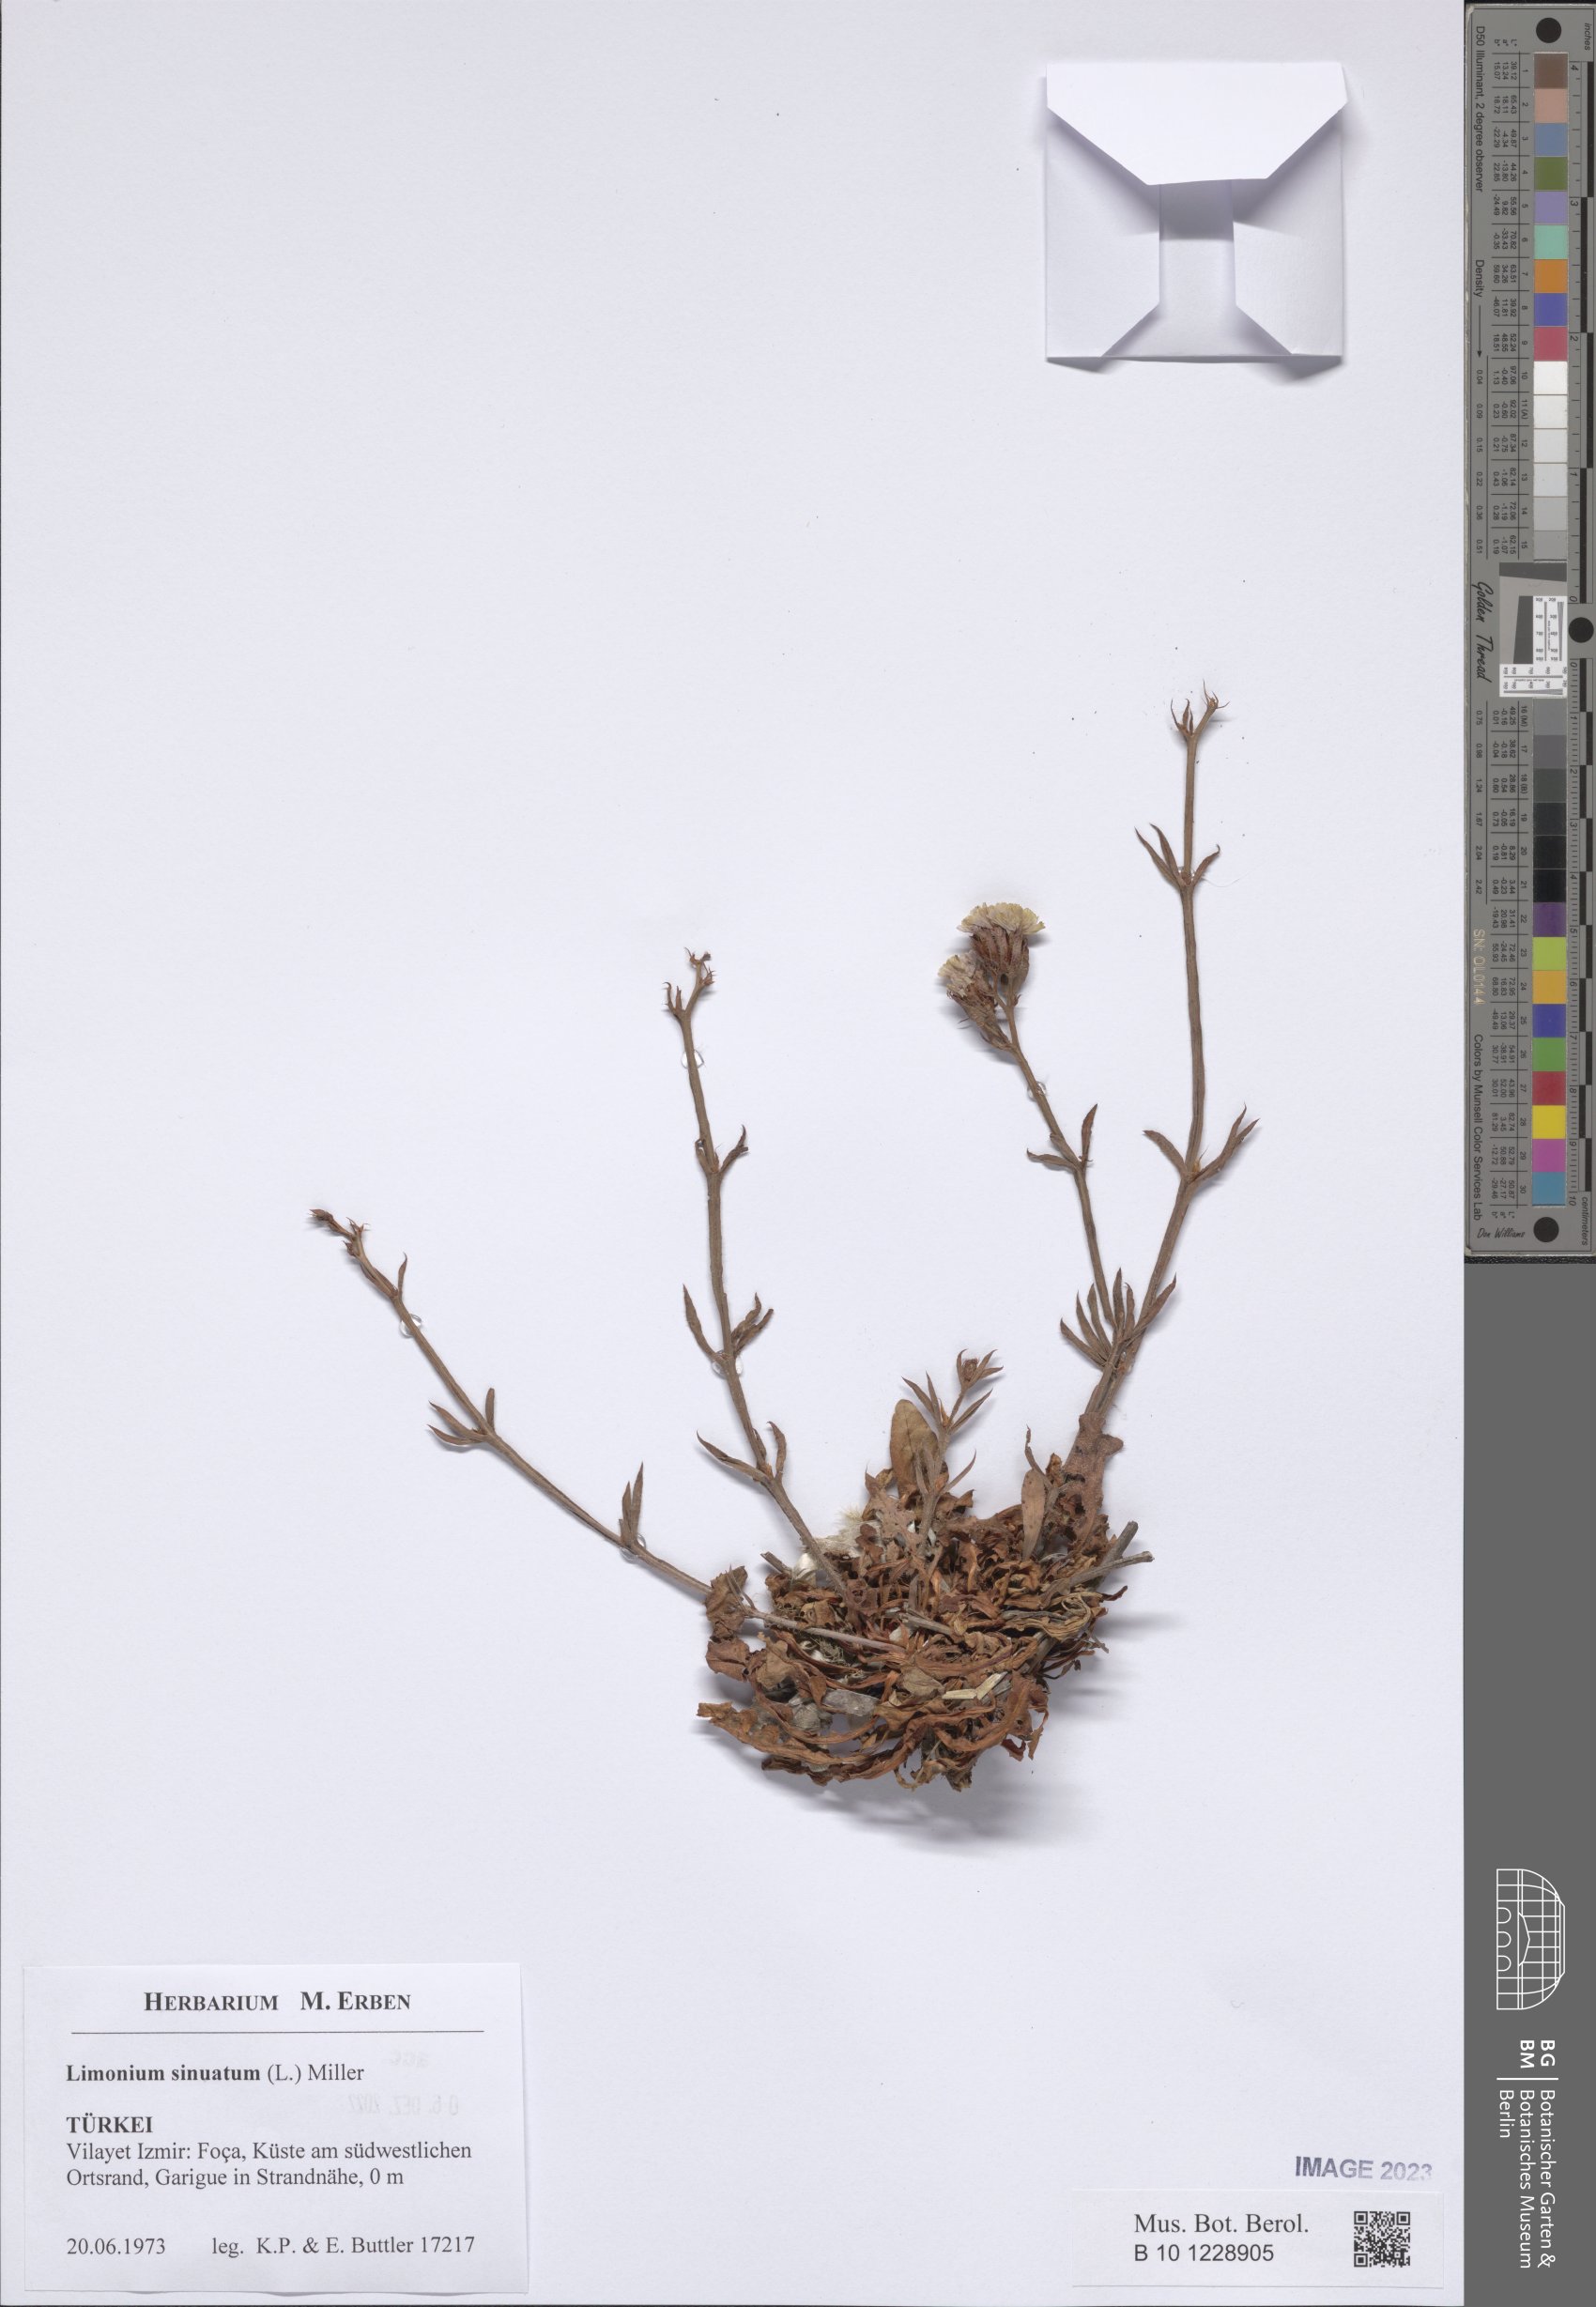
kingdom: Plantae
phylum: Tracheophyta
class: Magnoliopsida
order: Caryophyllales
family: Plumbaginaceae
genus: Limonium
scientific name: Limonium sinuatum
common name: Statice
